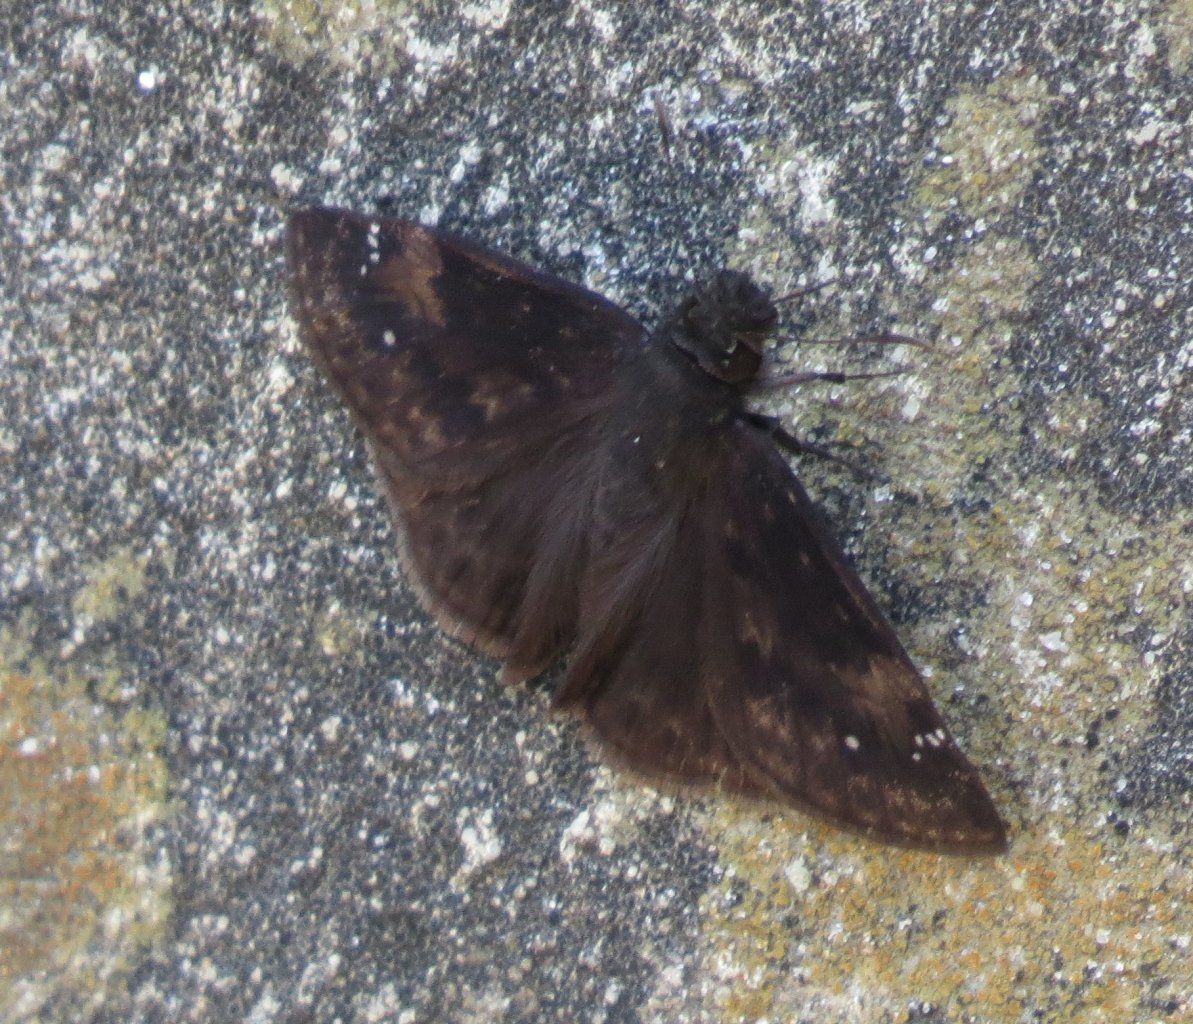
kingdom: Animalia
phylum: Arthropoda
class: Insecta
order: Lepidoptera
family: Hesperiidae
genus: Erynnis
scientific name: Erynnis zarucco
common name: Zarucco Duskywing
